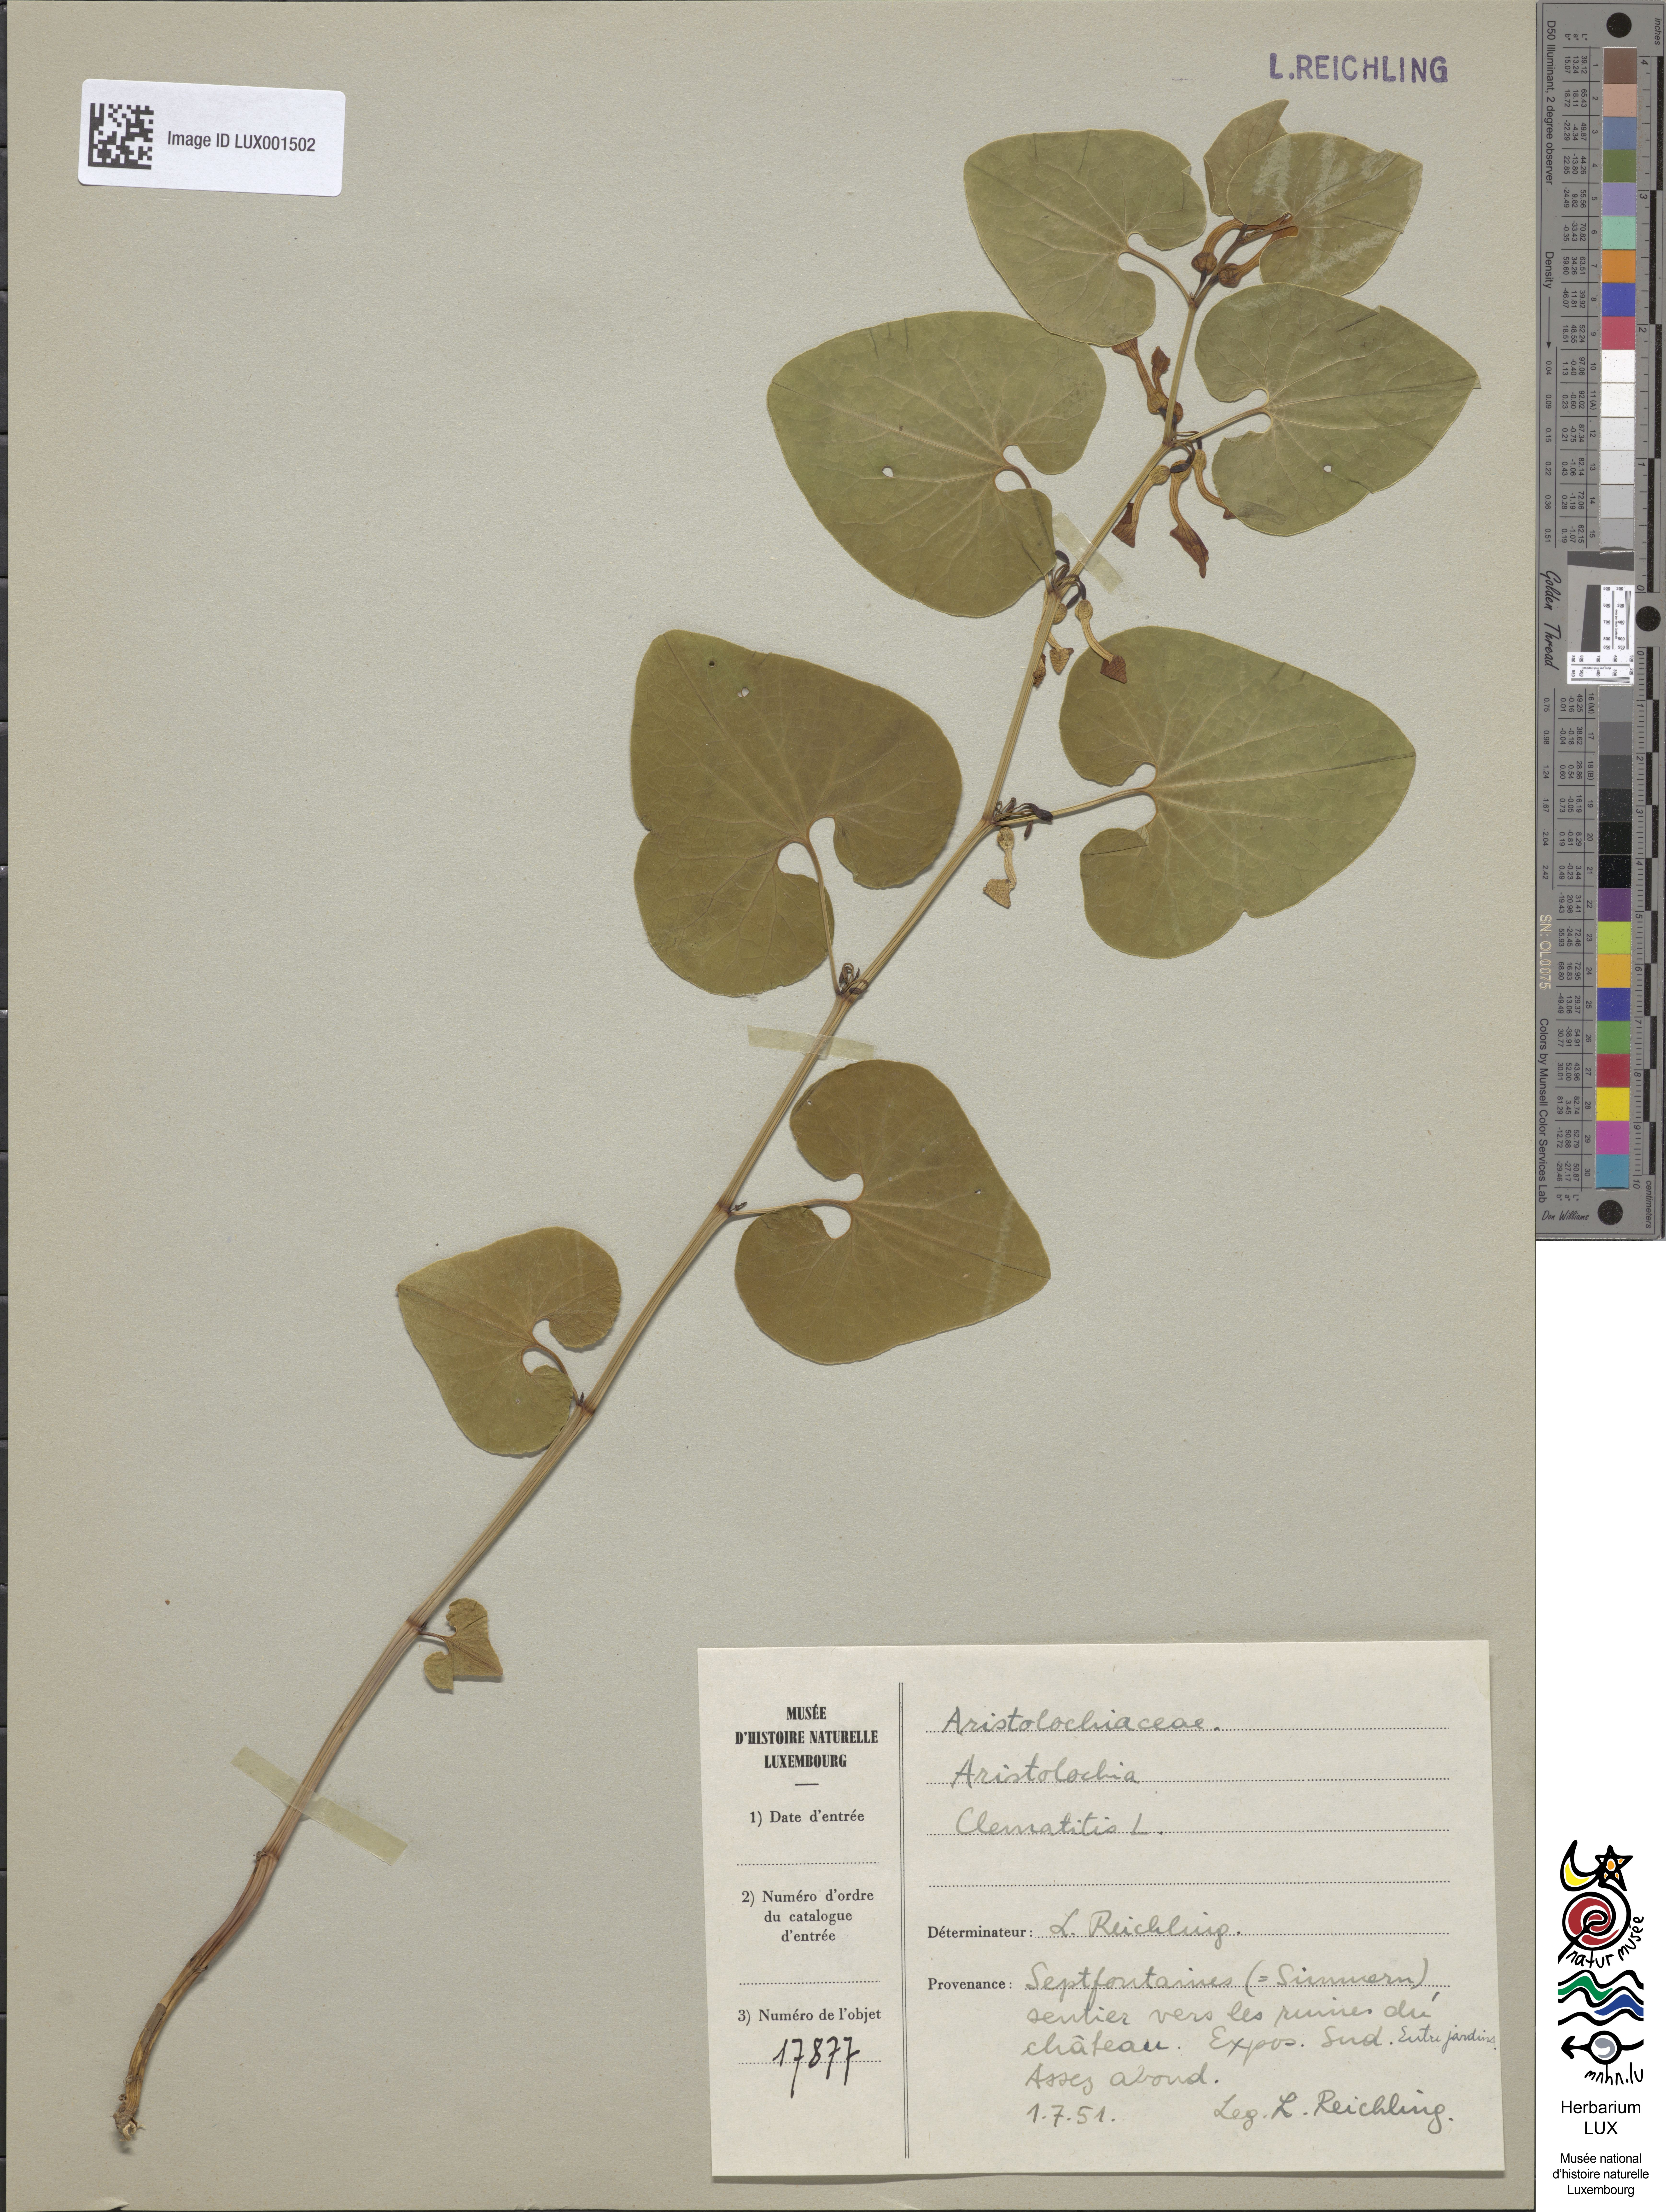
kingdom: Plantae
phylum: Tracheophyta
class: Magnoliopsida
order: Piperales
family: Aristolochiaceae
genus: Aristolochia
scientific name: Aristolochia clematitis
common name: Birthwort
